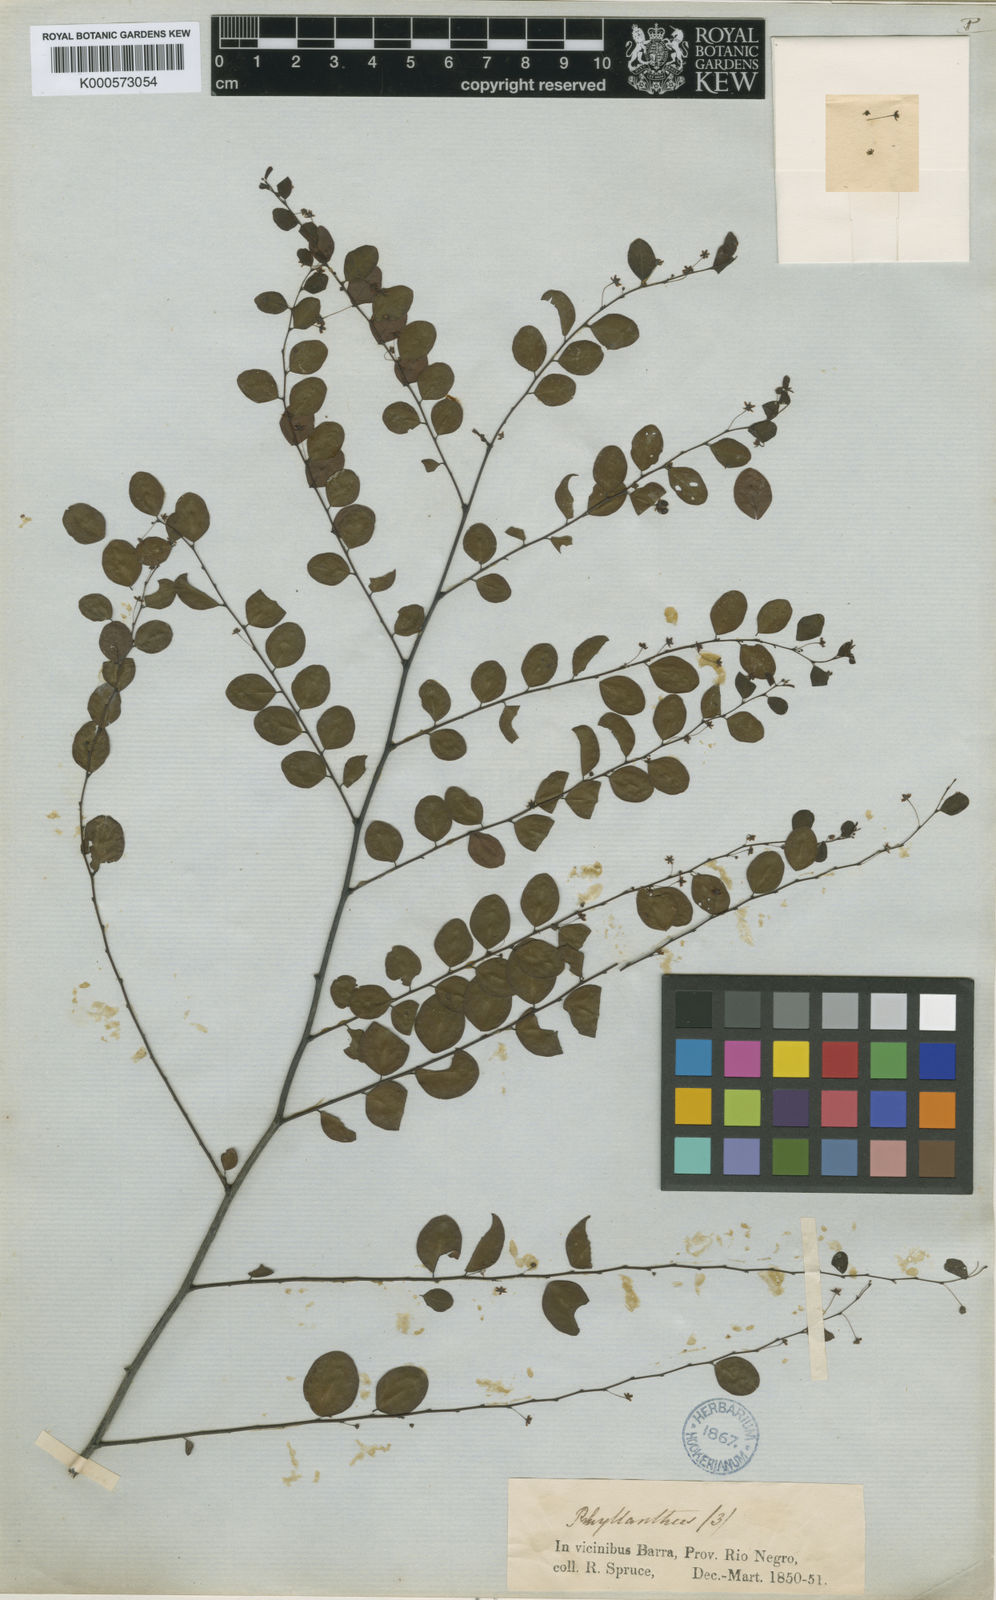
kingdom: Plantae
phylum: Tracheophyta
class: Magnoliopsida
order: Malpighiales
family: Phyllanthaceae
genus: Phyllanthus
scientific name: Phyllanthus
